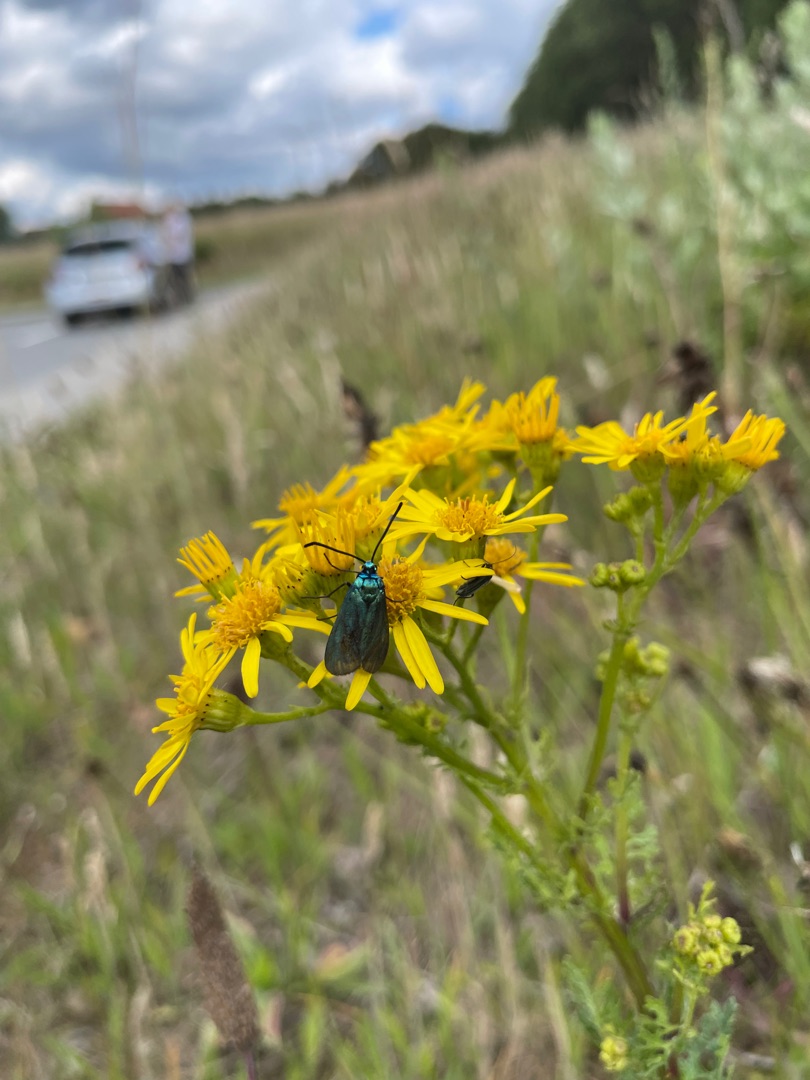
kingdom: Animalia
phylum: Arthropoda
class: Insecta
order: Lepidoptera
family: Zygaenidae
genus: Adscita
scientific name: Adscita statices
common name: Metalvinge
